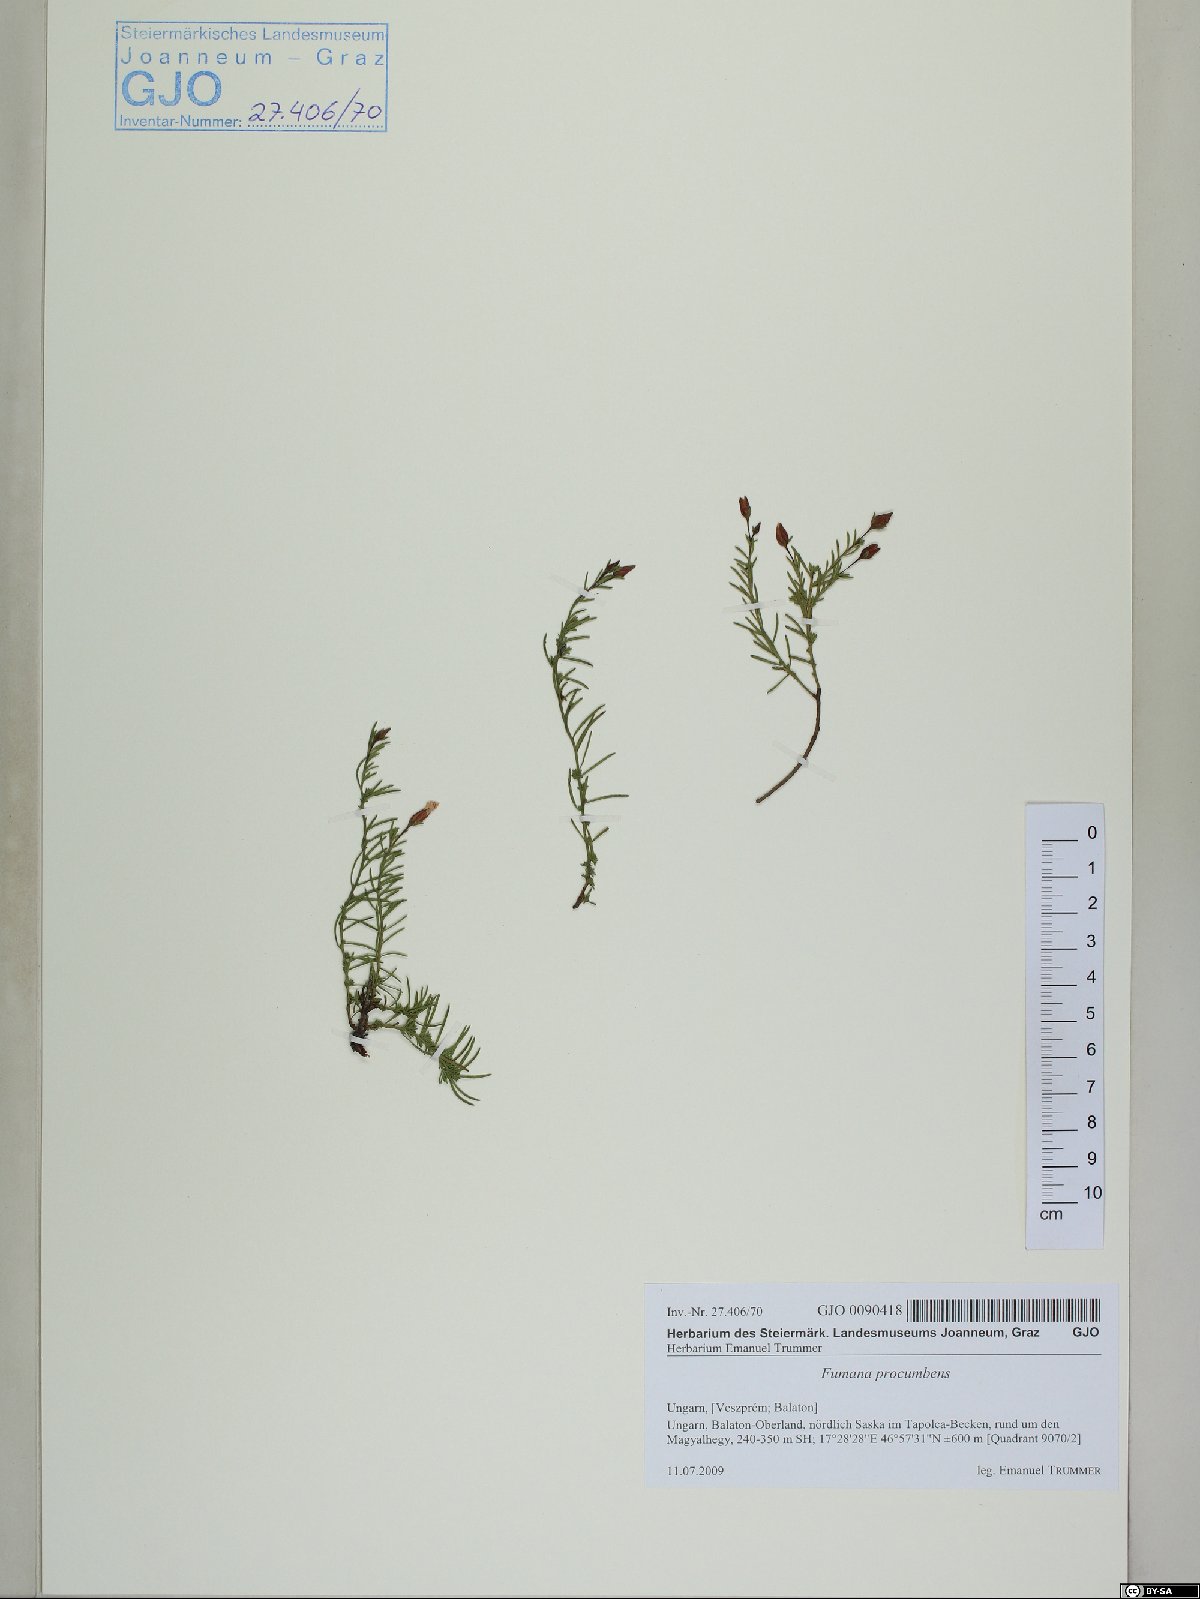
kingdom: Plantae
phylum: Tracheophyta
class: Magnoliopsida
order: Malvales
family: Cistaceae
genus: Fumana
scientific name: Fumana procumbens
